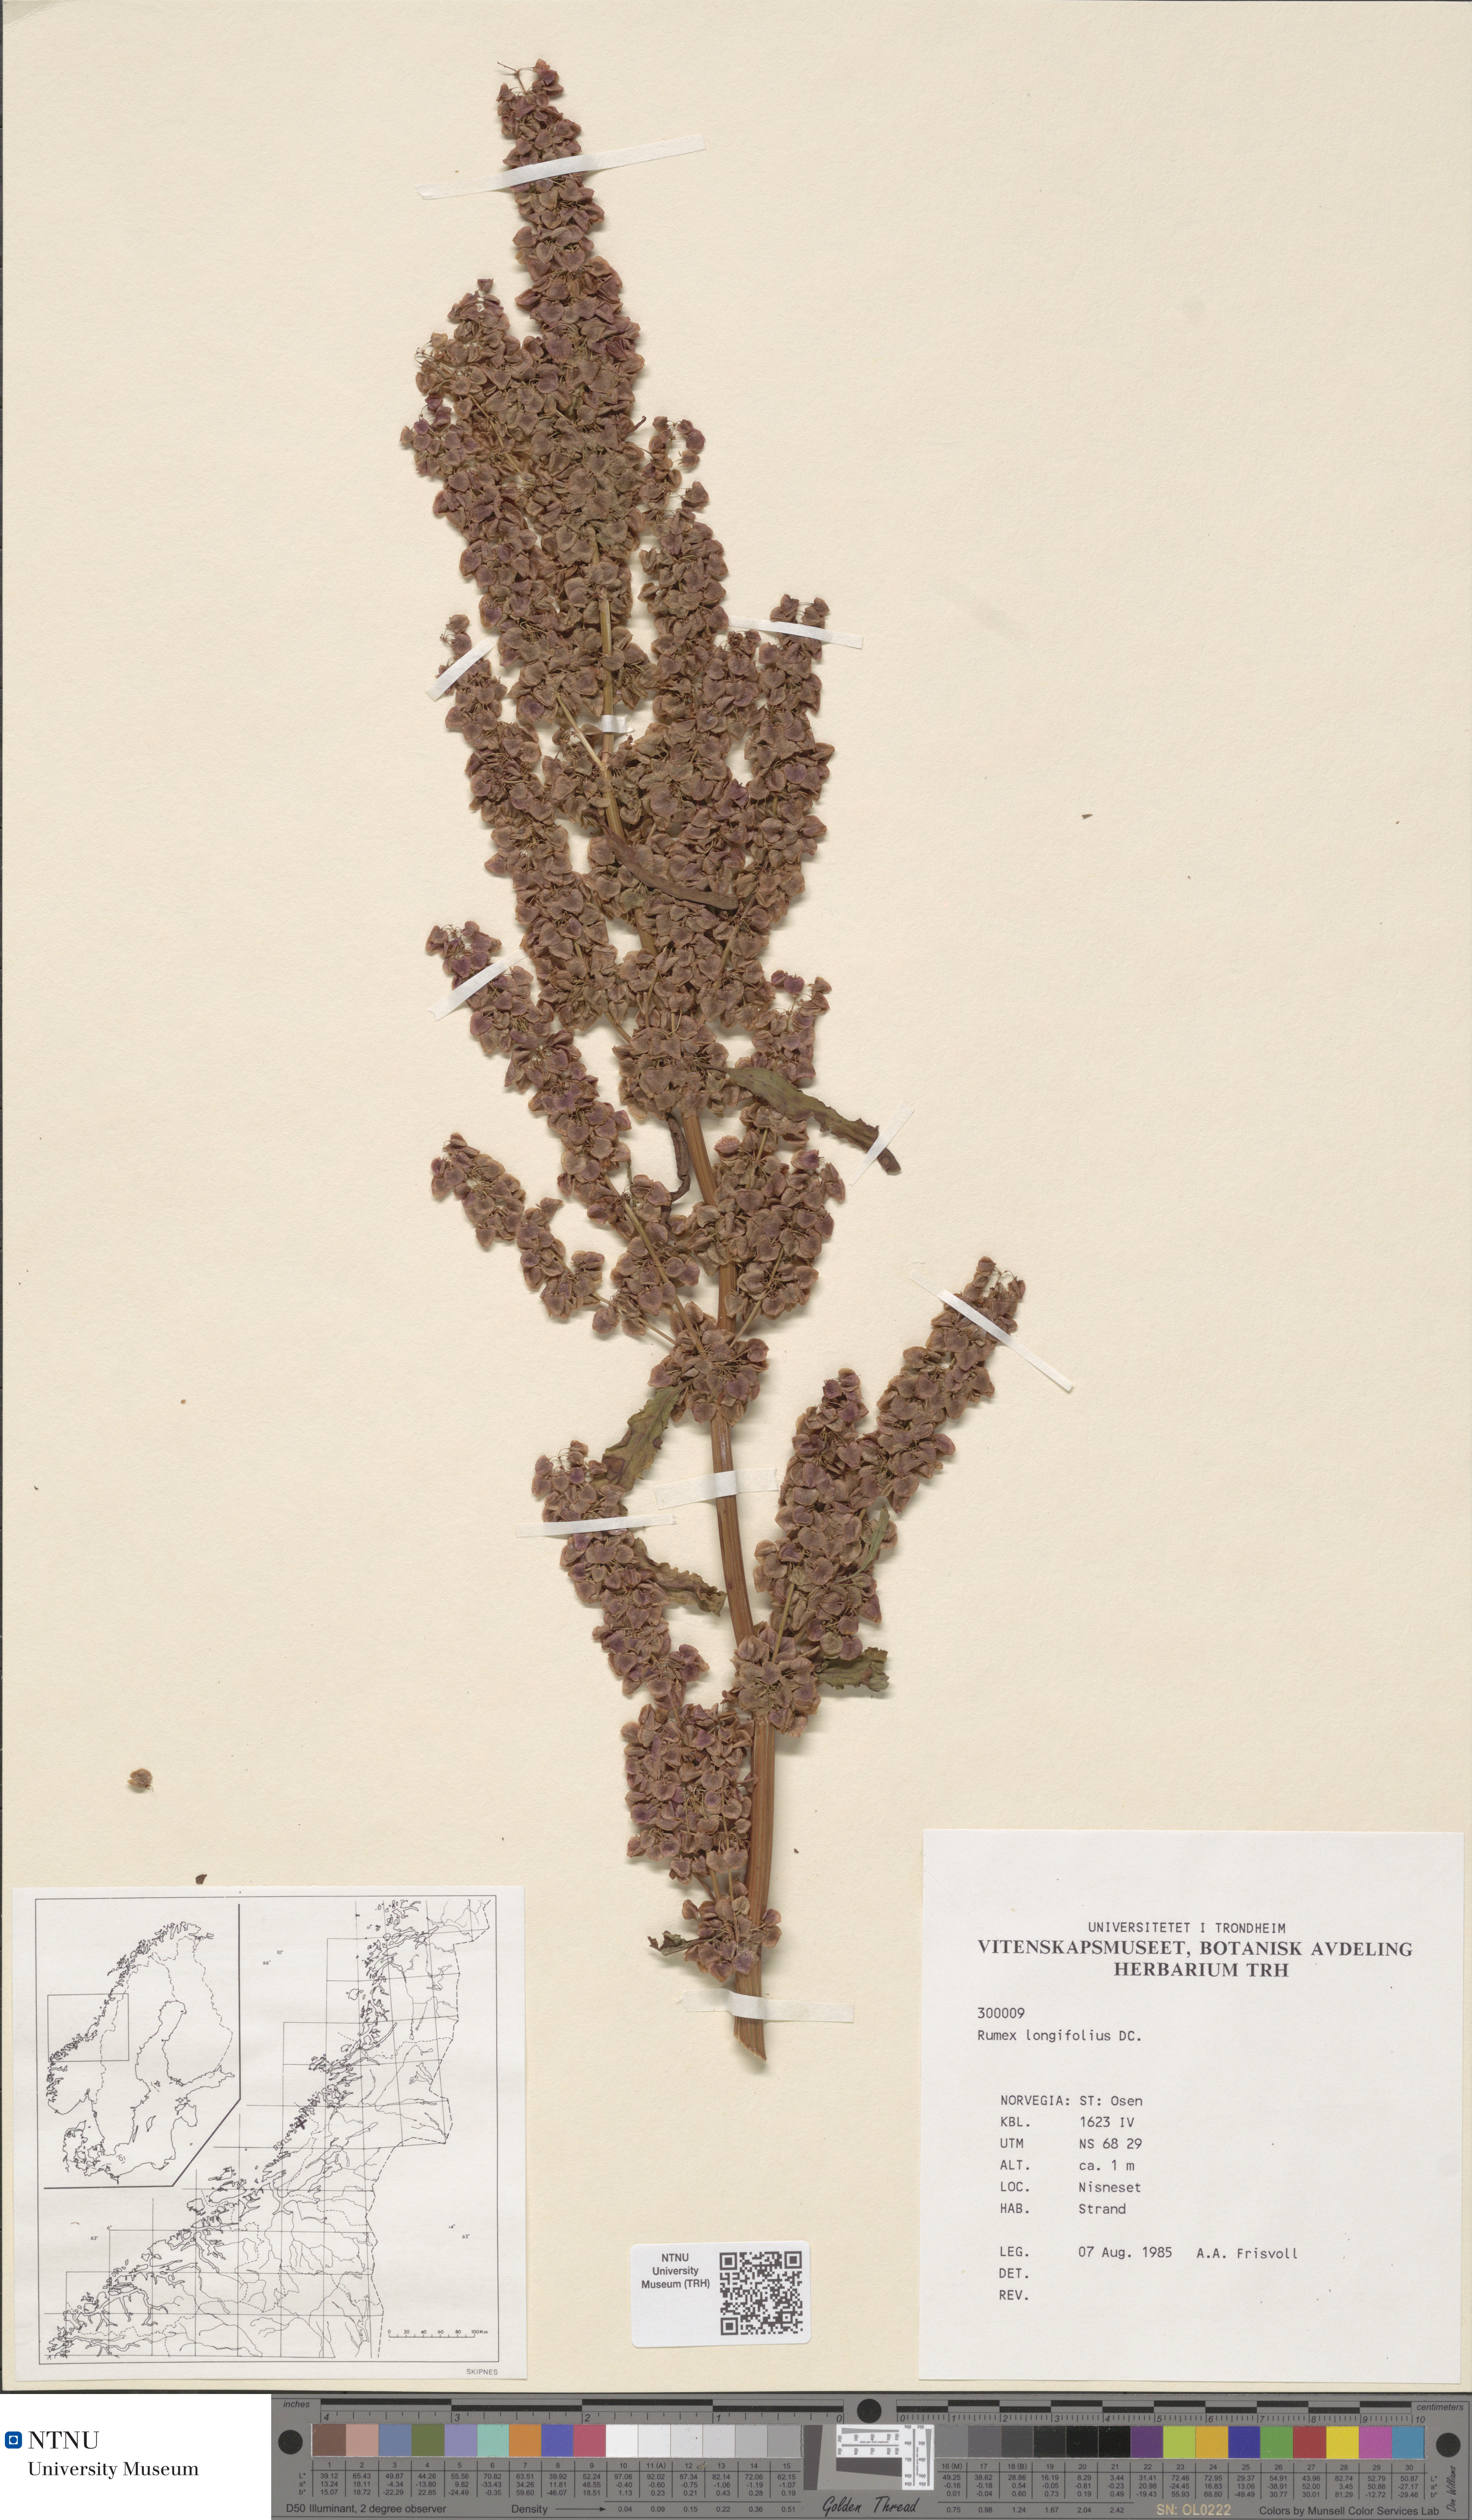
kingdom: Plantae
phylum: Tracheophyta
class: Magnoliopsida
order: Caryophyllales
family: Polygonaceae
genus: Rumex
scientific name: Rumex longifolius
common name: Dooryard dock
